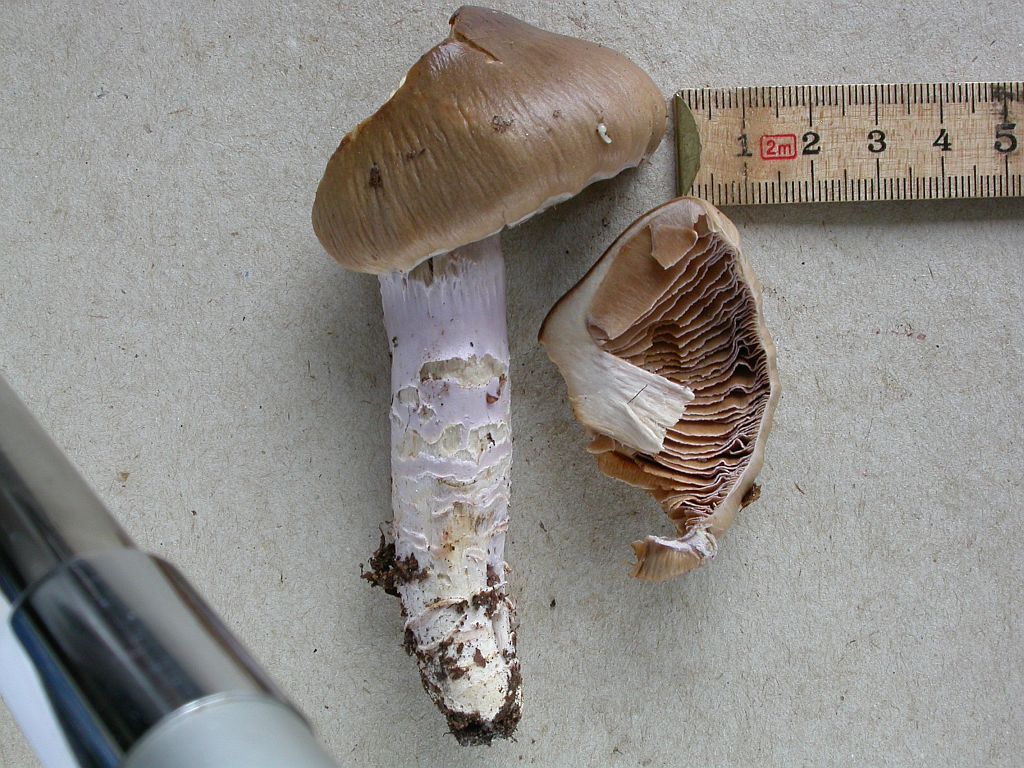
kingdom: Fungi
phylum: Basidiomycota
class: Agaricomycetes
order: Agaricales
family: Cortinariaceae
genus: Cortinarius
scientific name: Cortinarius elatior
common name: høj slørhat
